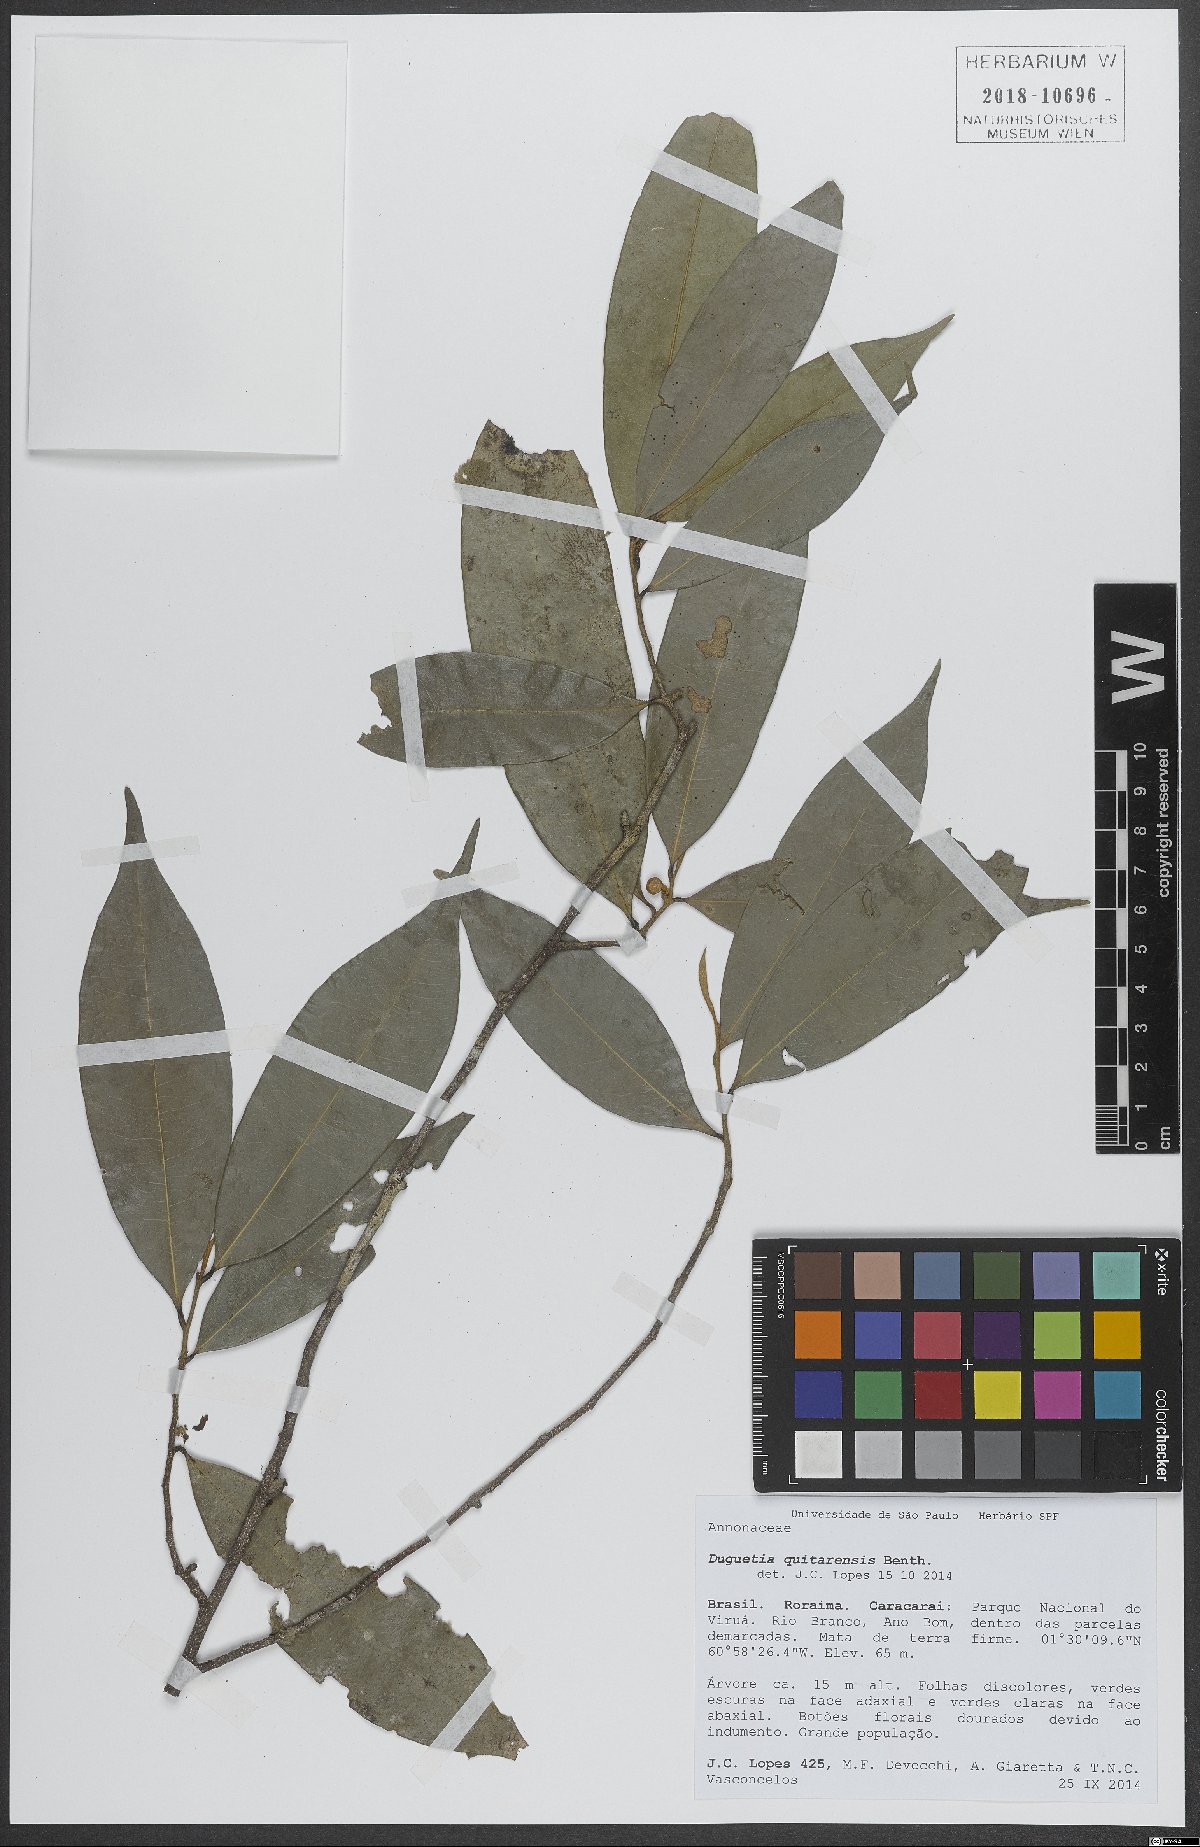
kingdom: Plantae
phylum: Tracheophyta
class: Magnoliopsida
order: Magnoliales
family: Annonaceae
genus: Duguetia
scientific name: Duguetia quitarensis
